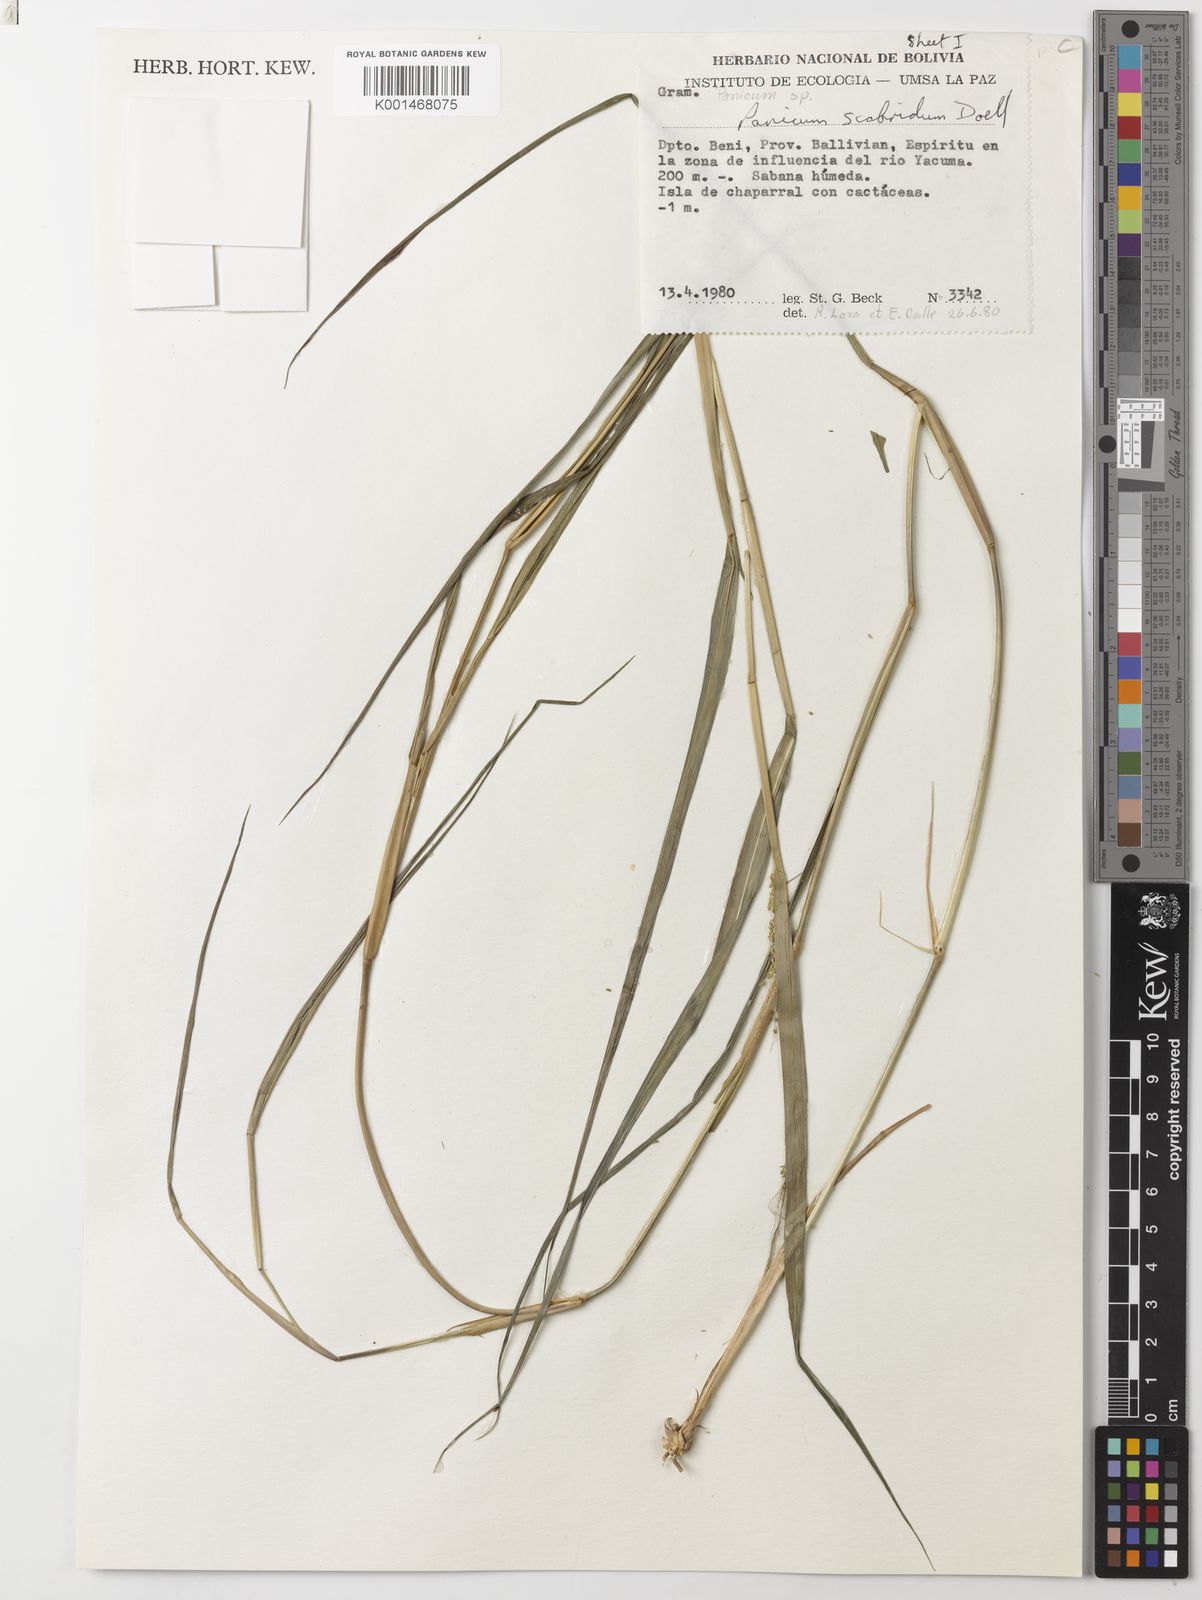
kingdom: Plantae
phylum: Tracheophyta
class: Liliopsida
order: Poales
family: Poaceae
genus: Panicum
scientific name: Panicum
